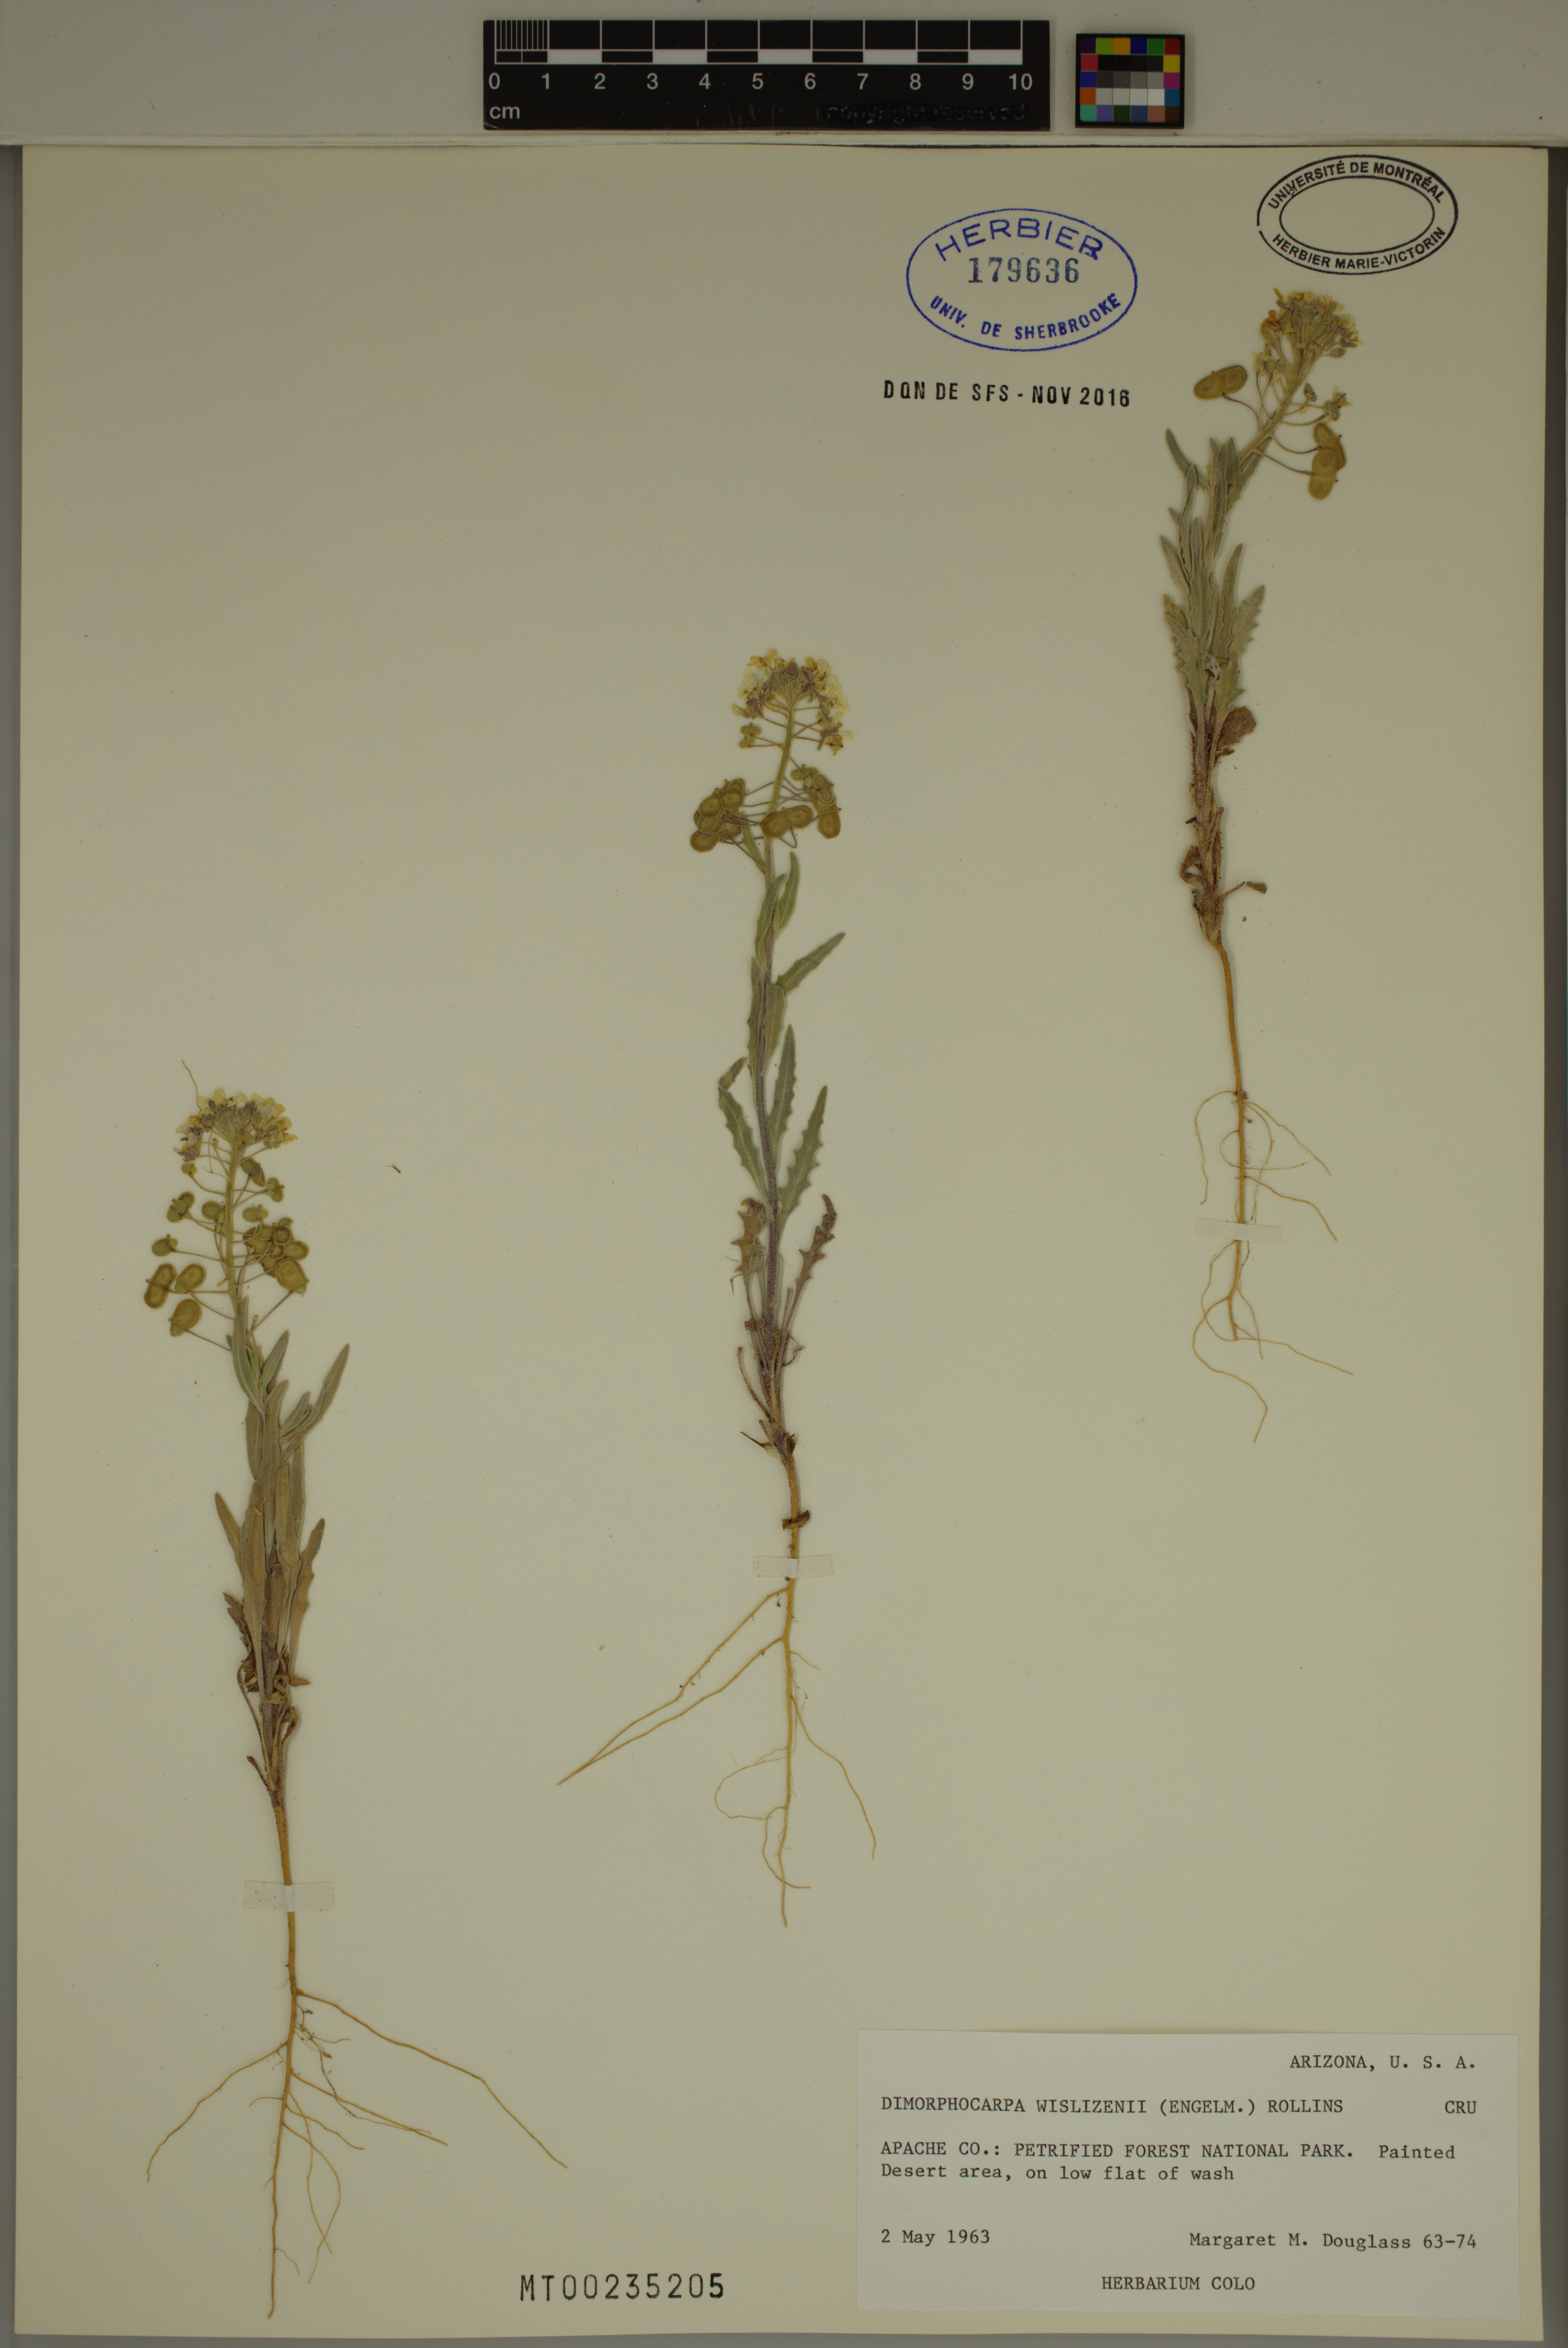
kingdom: Plantae
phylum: Tracheophyta
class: Magnoliopsida
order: Brassicales
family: Brassicaceae
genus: Dimorphocarpa
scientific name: Dimorphocarpa wislizenii
